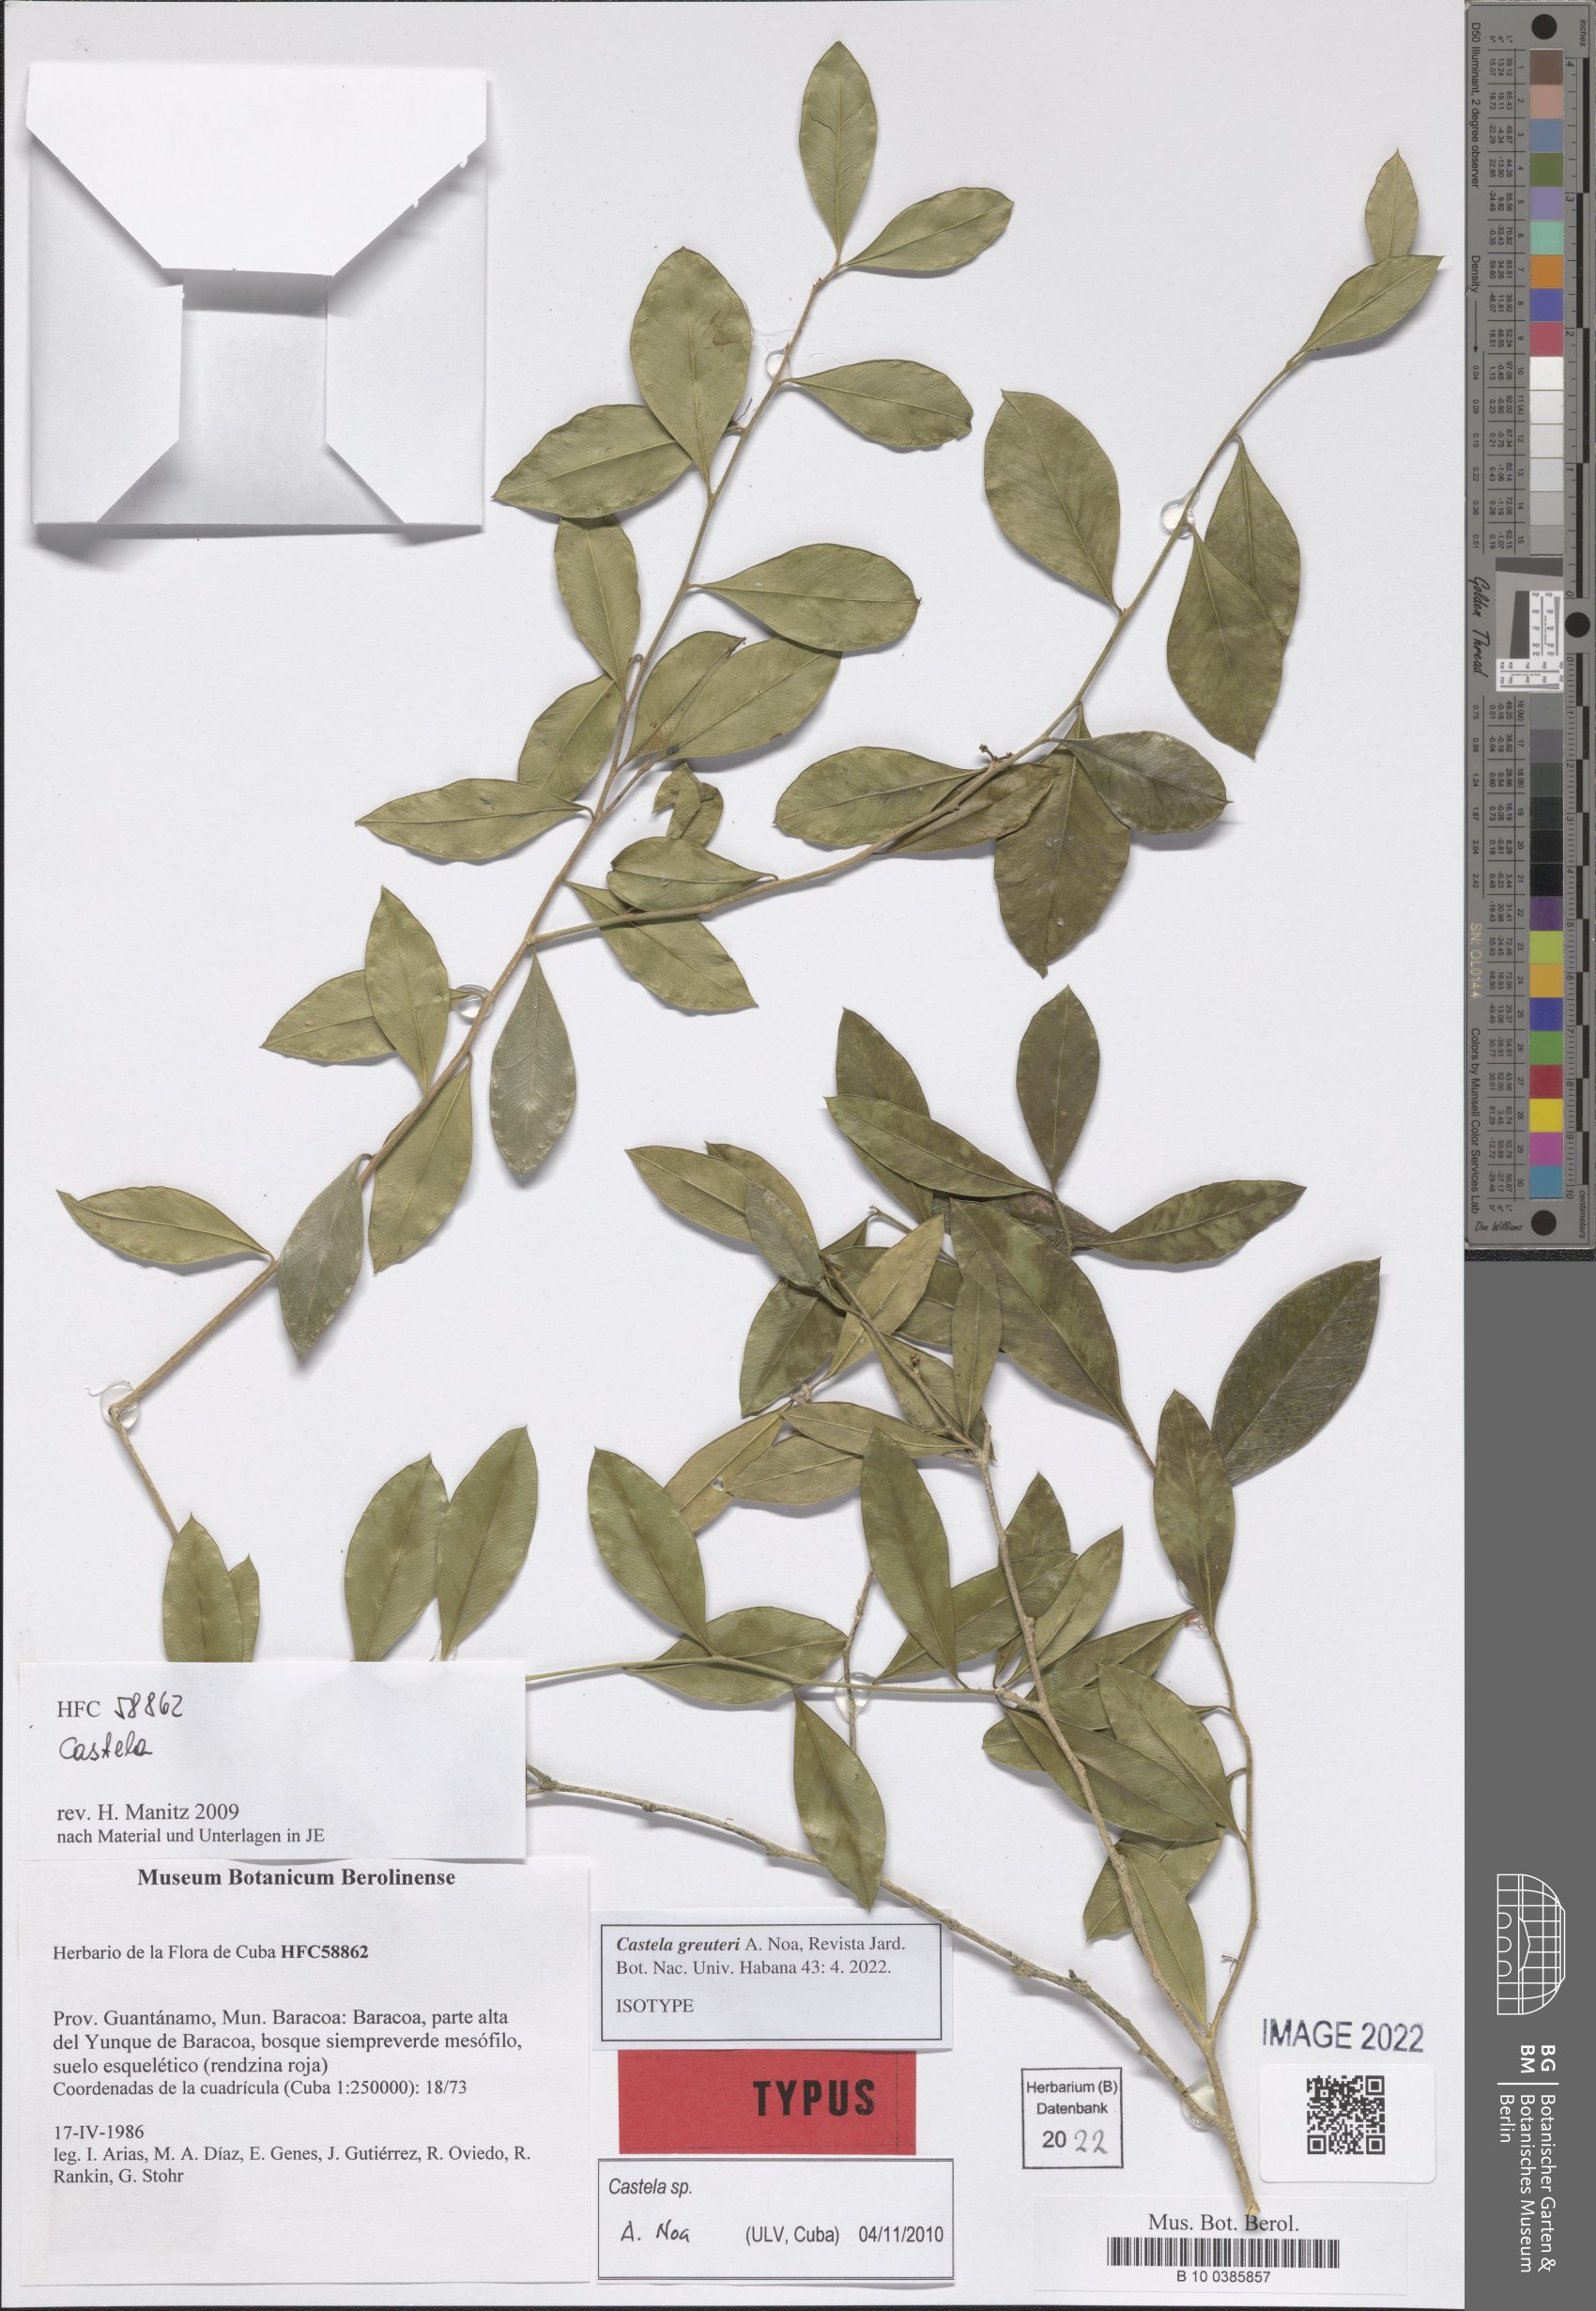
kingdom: Plantae
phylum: Tracheophyta
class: Magnoliopsida
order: Sapindales
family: Simaroubaceae
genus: Castela
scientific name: Castela greuteri
